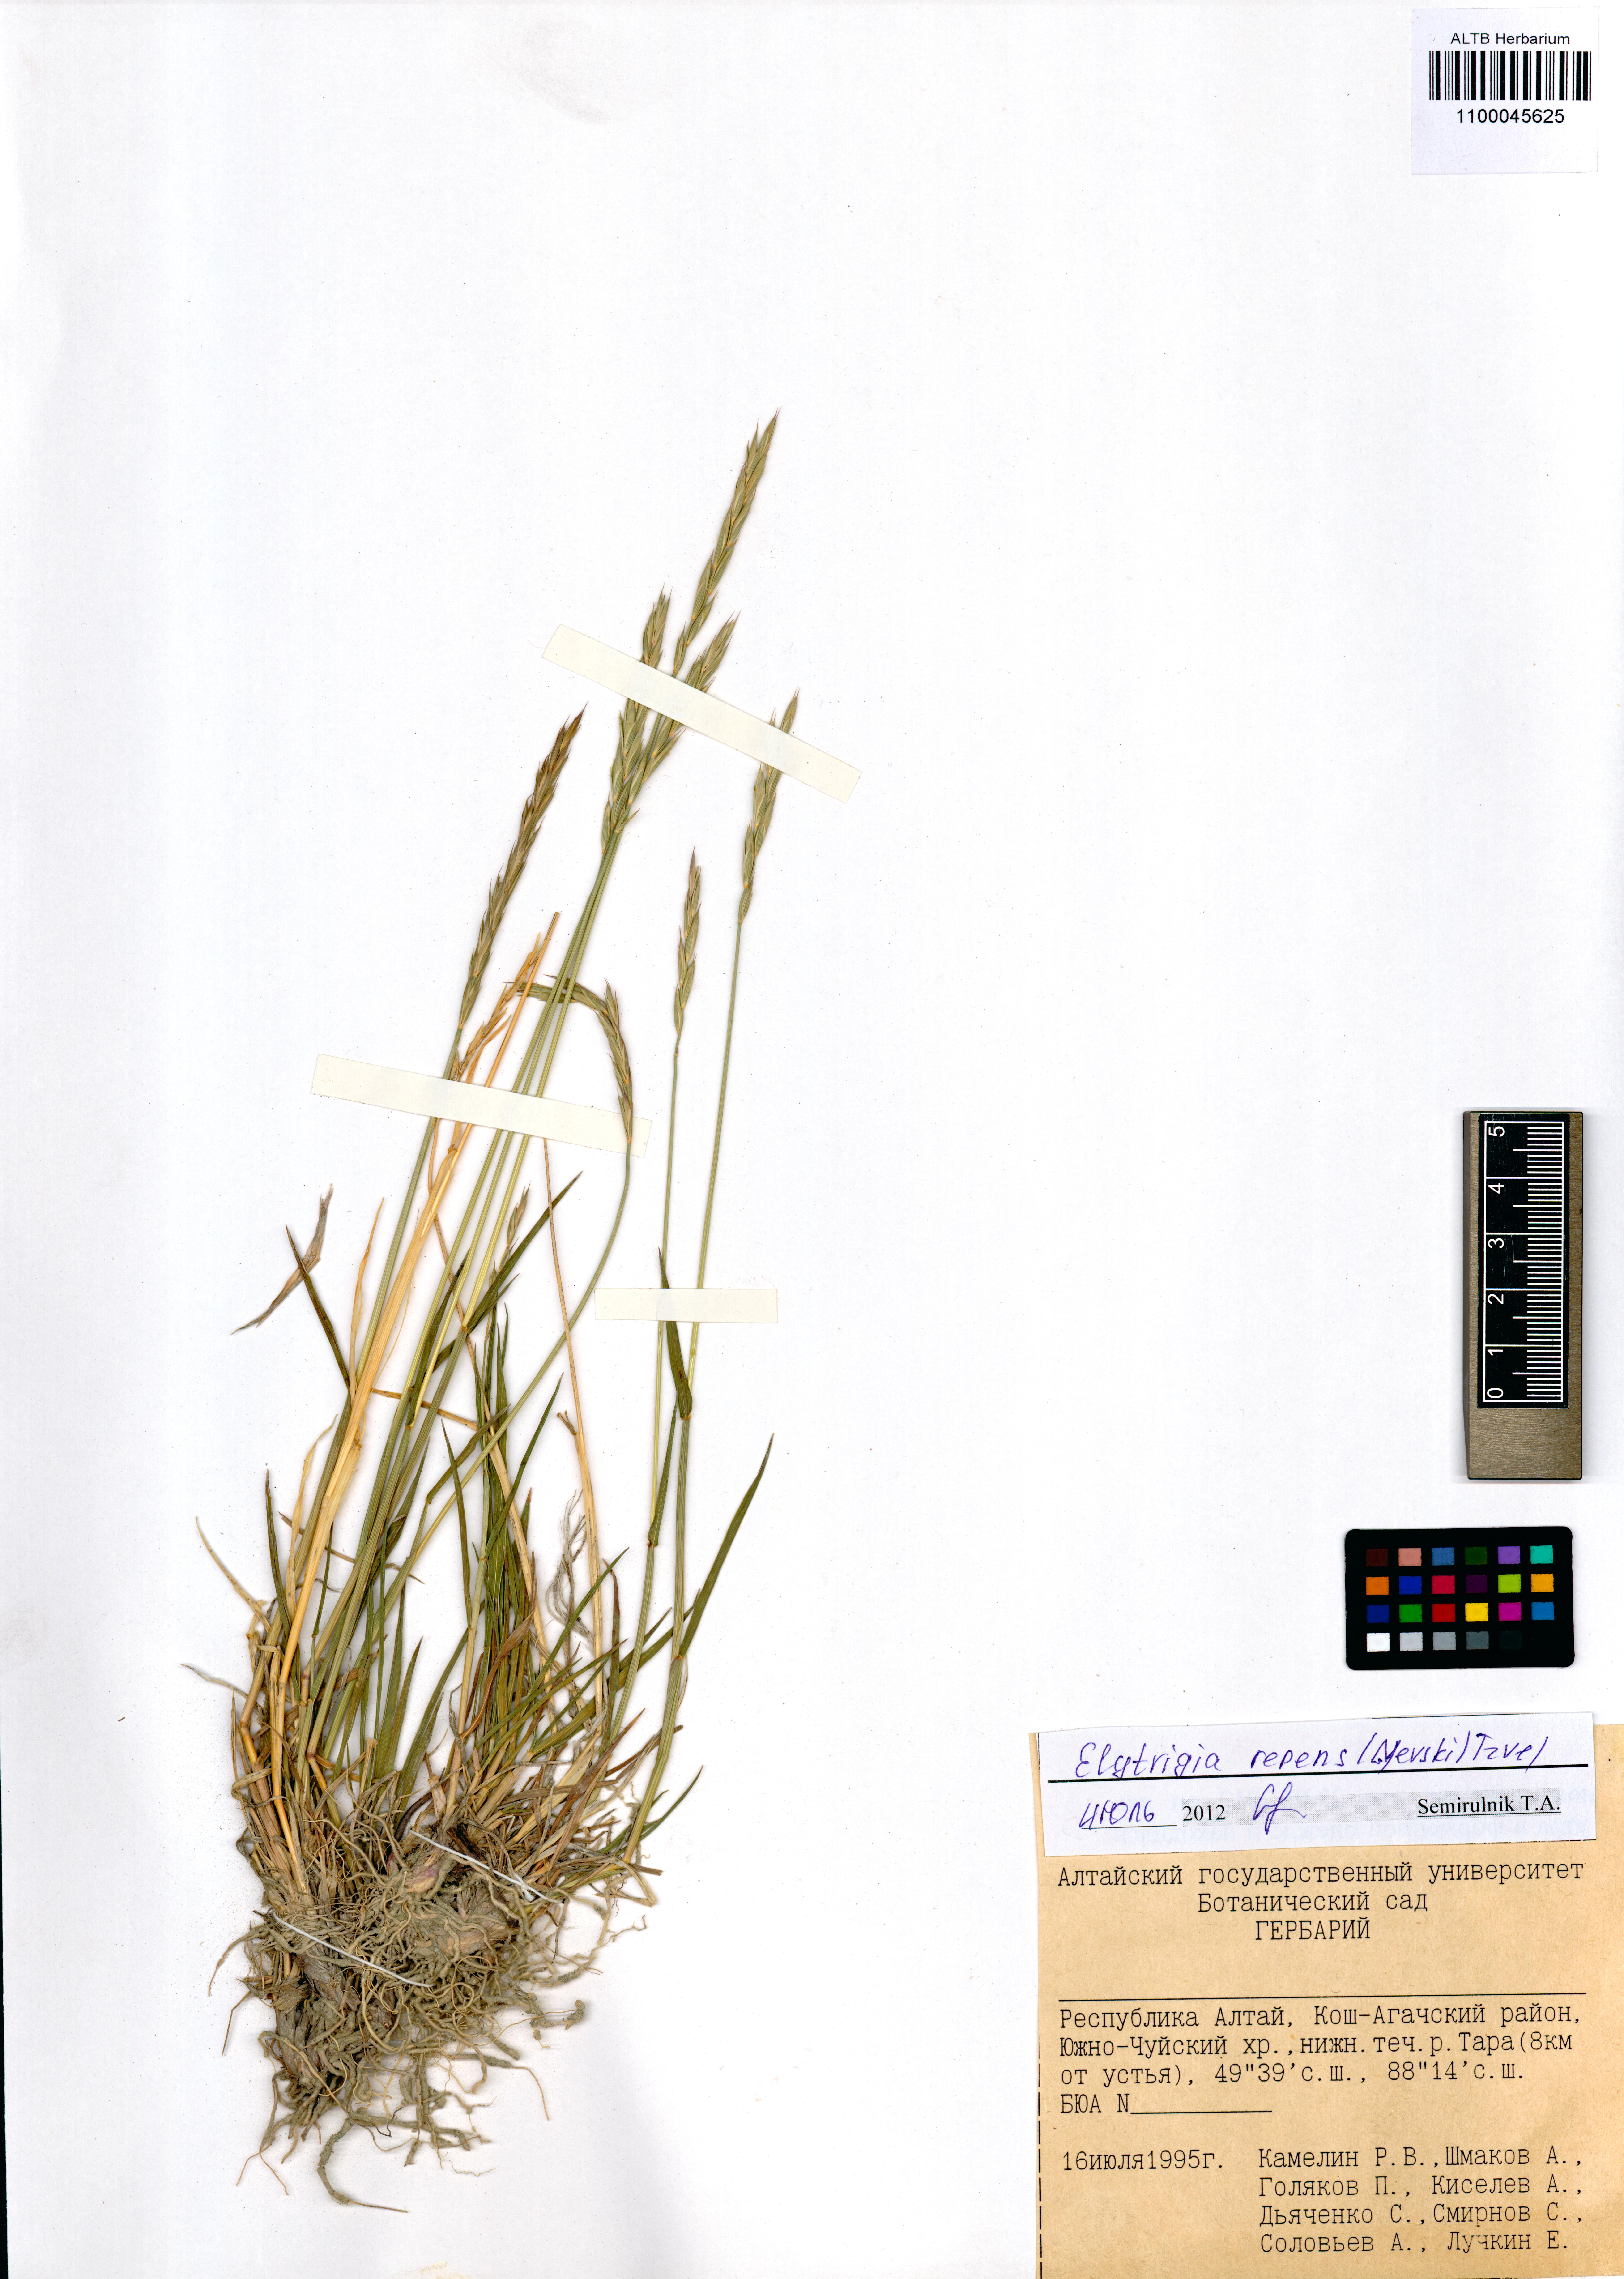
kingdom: Plantae
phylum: Tracheophyta
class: Liliopsida
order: Poales
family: Poaceae
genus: Elymus
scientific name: Elymus repens
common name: Quackgrass
